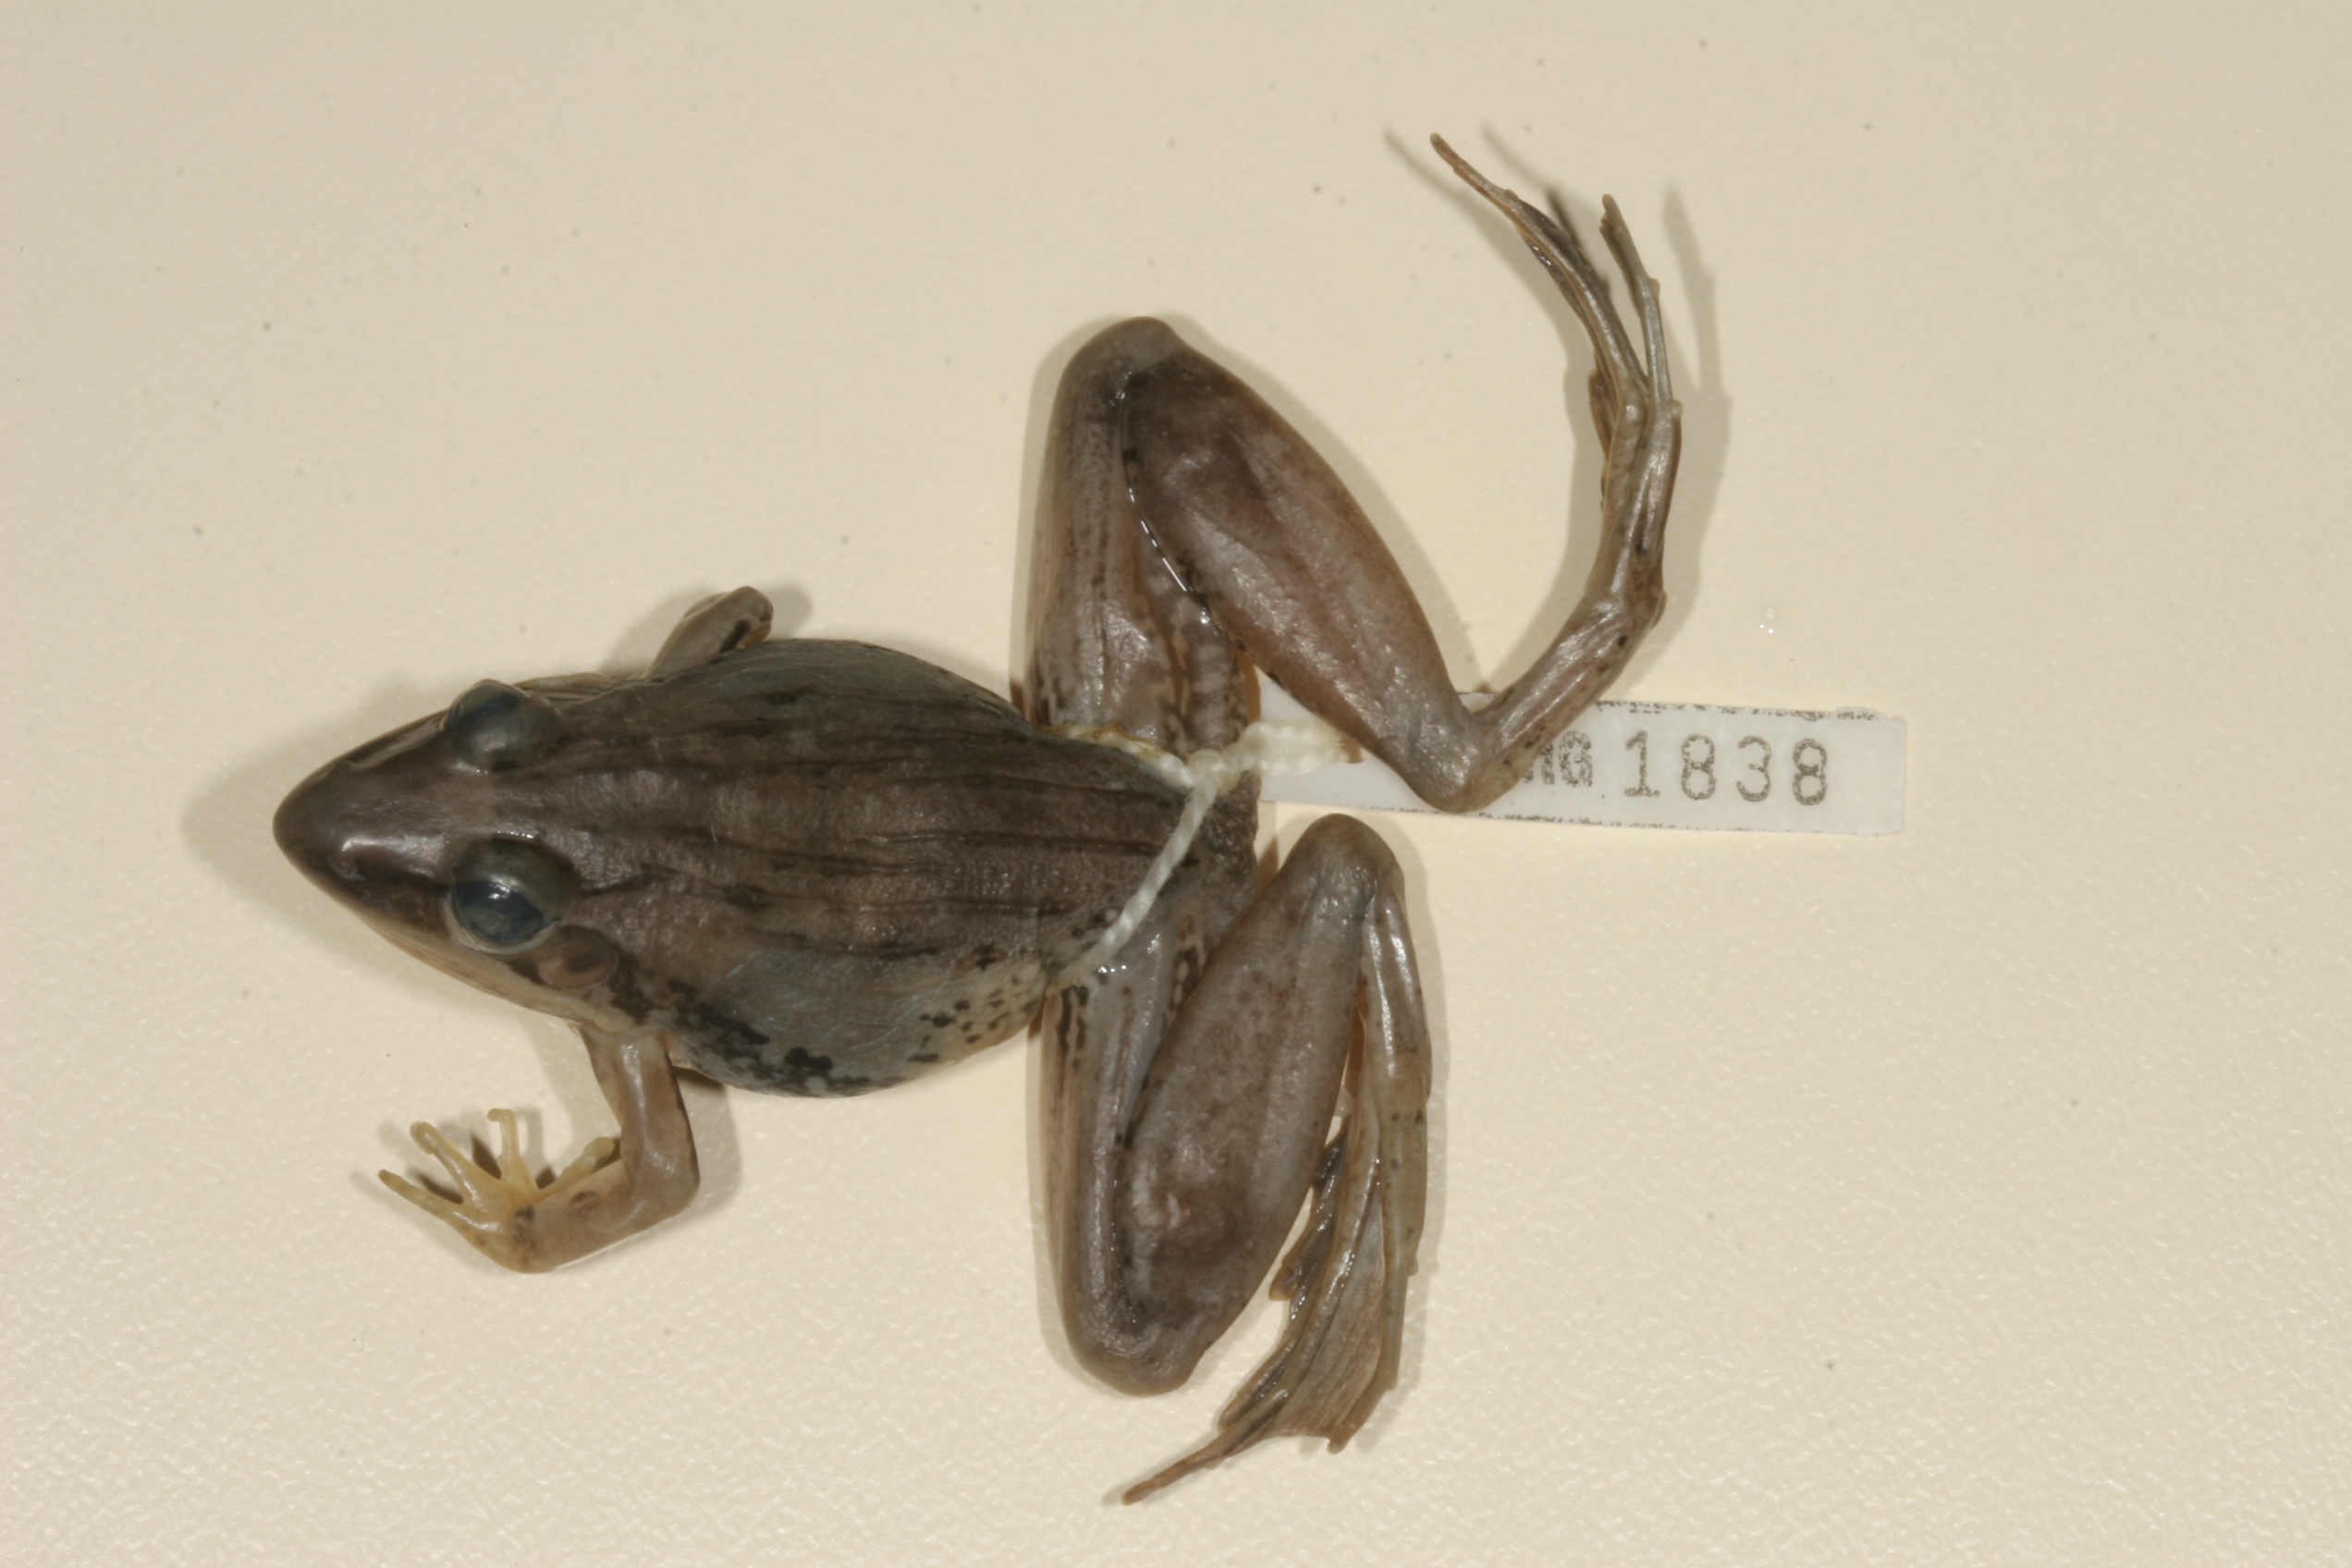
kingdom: Animalia
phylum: Chordata
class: Amphibia
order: Anura
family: Ptychadenidae
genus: Ptychadena
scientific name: Ptychadena anchietae
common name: Anchieta's ridged frog
